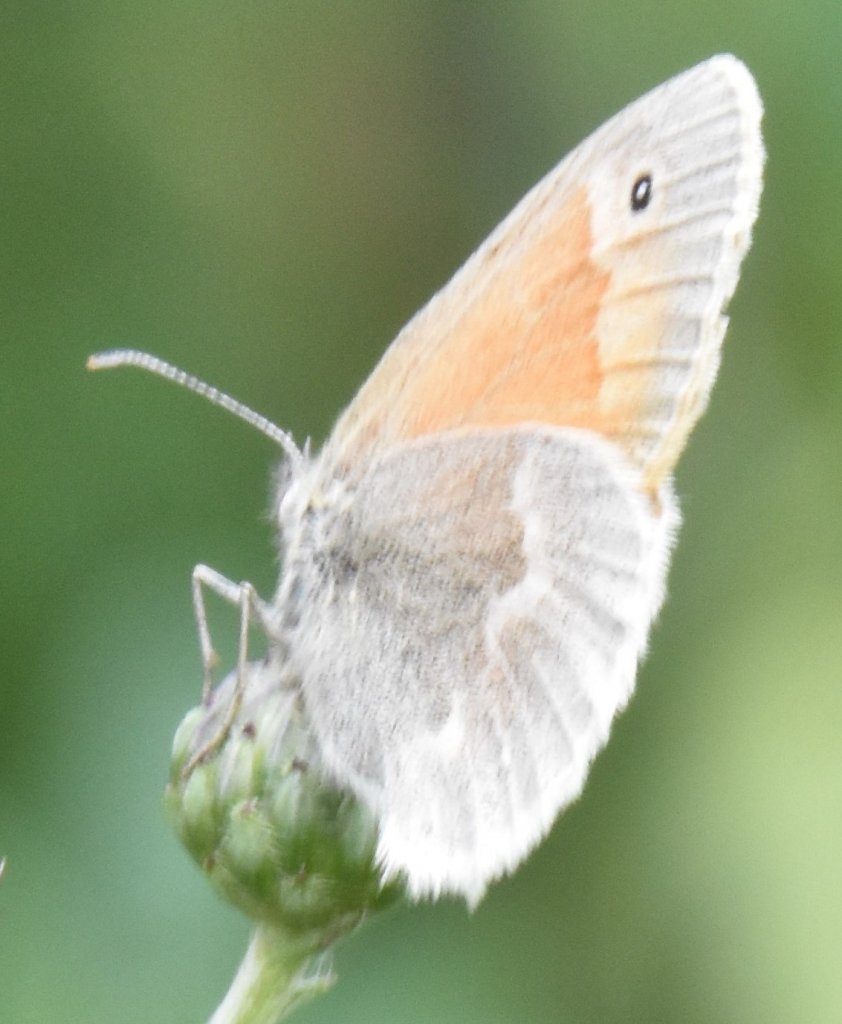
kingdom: Animalia
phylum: Arthropoda
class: Insecta
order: Lepidoptera
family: Nymphalidae
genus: Coenonympha
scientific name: Coenonympha tullia
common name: Large Heath
